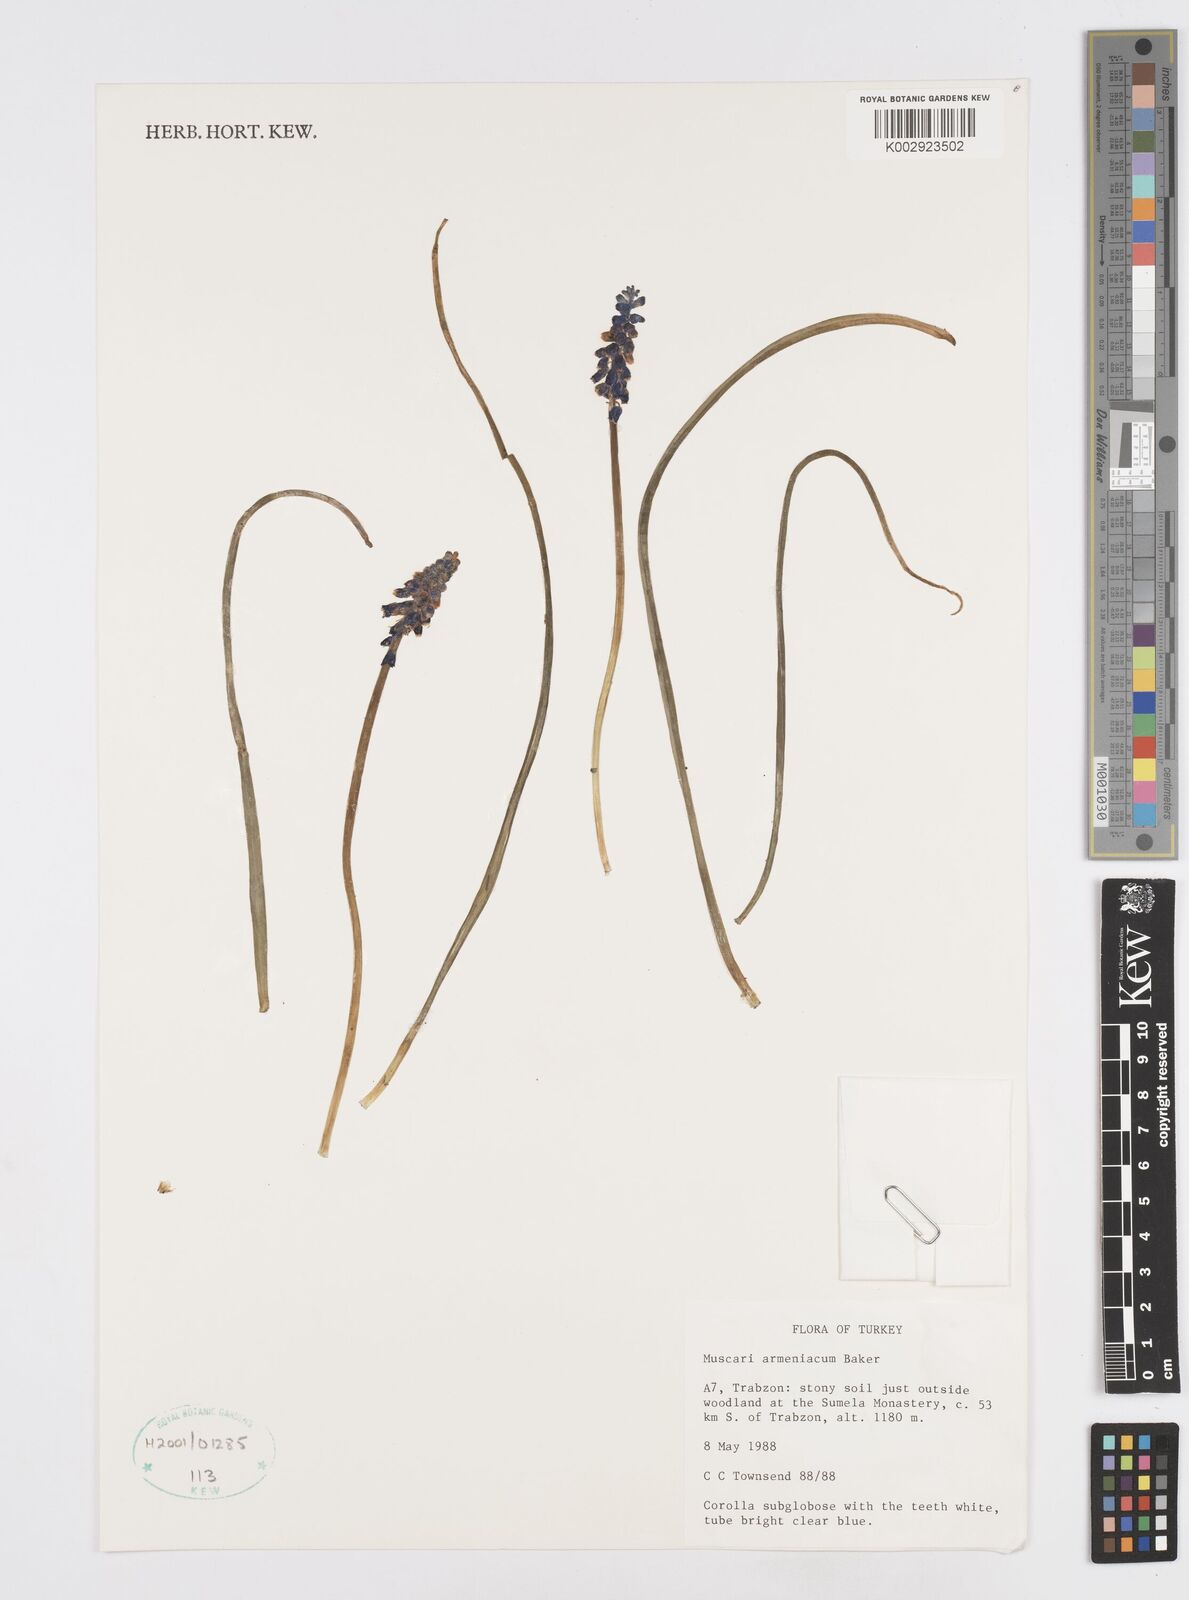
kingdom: Plantae
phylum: Tracheophyta
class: Liliopsida
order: Asparagales
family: Asparagaceae
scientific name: Asparagaceae
